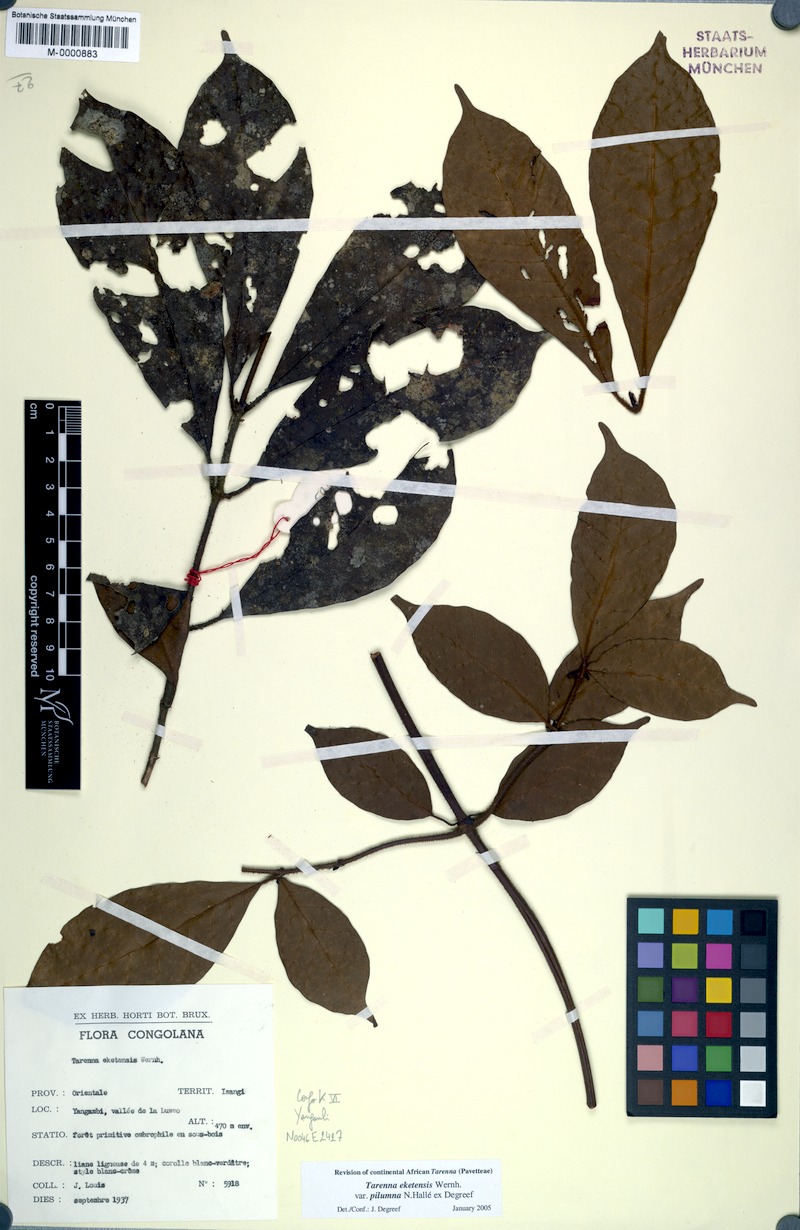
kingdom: Plantae
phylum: Tracheophyta
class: Magnoliopsida
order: Gentianales
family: Rubiaceae
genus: Tarenna
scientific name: Tarenna eketensis
